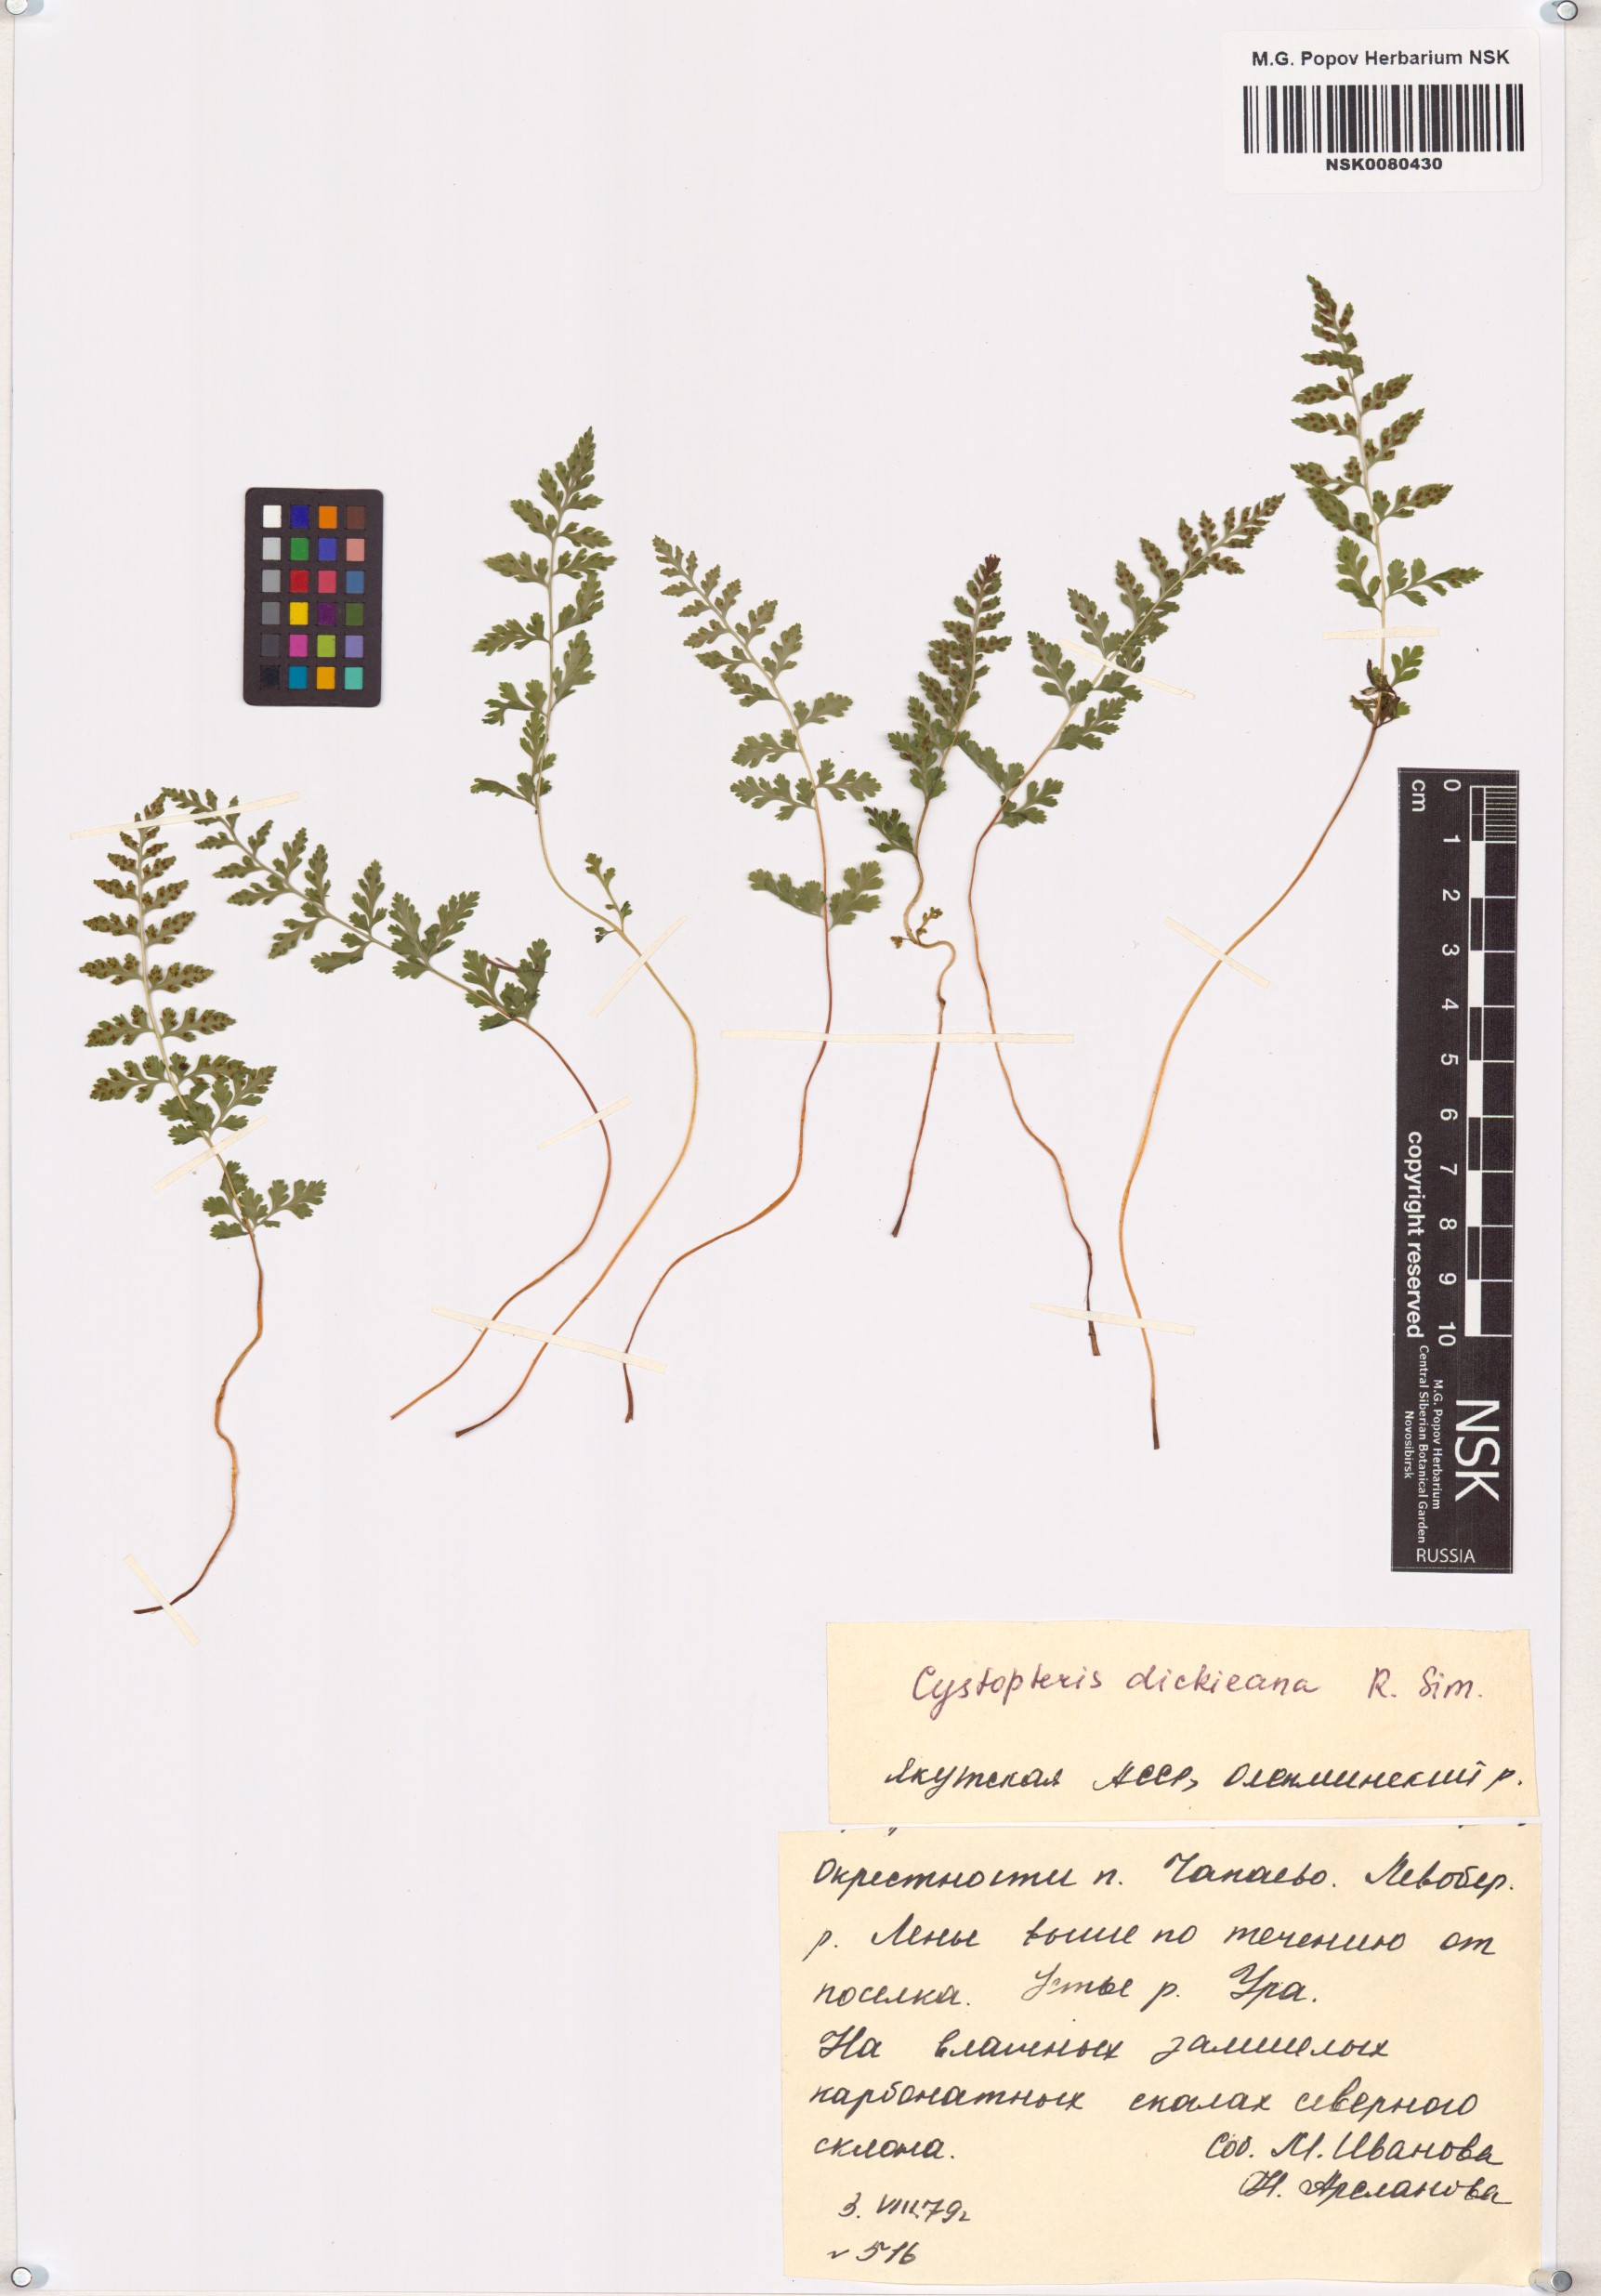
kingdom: Plantae
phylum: Tracheophyta
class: Polypodiopsida
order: Polypodiales
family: Cystopteridaceae
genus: Cystopteris
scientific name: Cystopteris dickieana
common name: Dickie's bladder-fern
